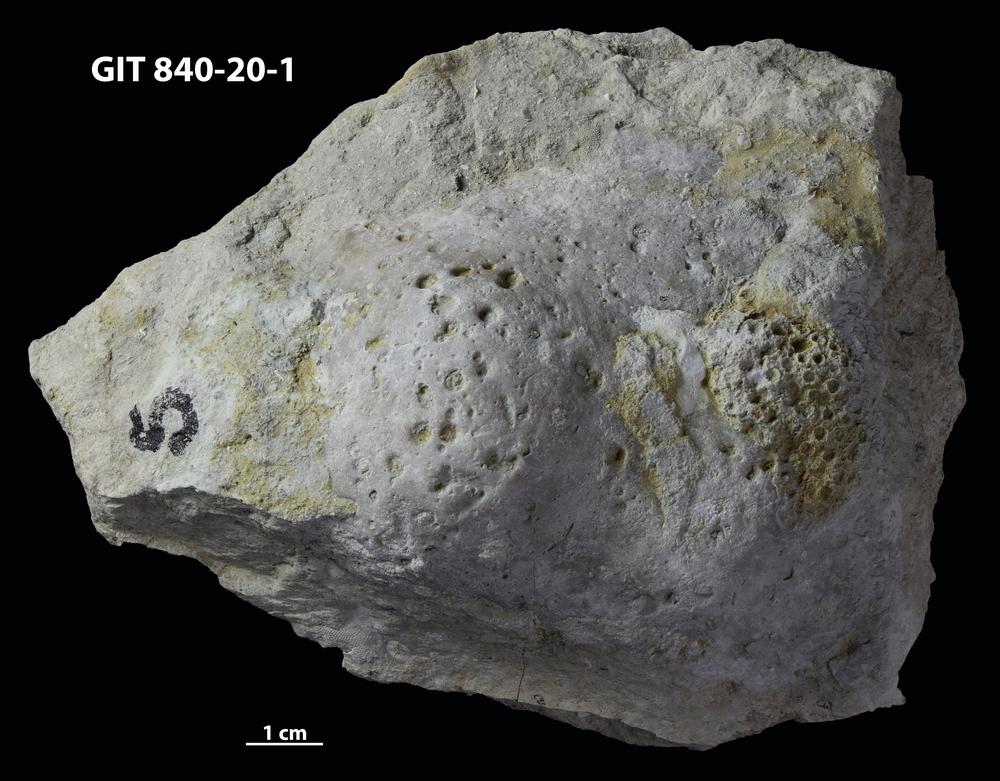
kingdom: Animalia
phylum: Cnidaria
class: Anthozoa
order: Heliolitina
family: Proheliolitidae
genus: Protoheliolites
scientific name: Protoheliolites
